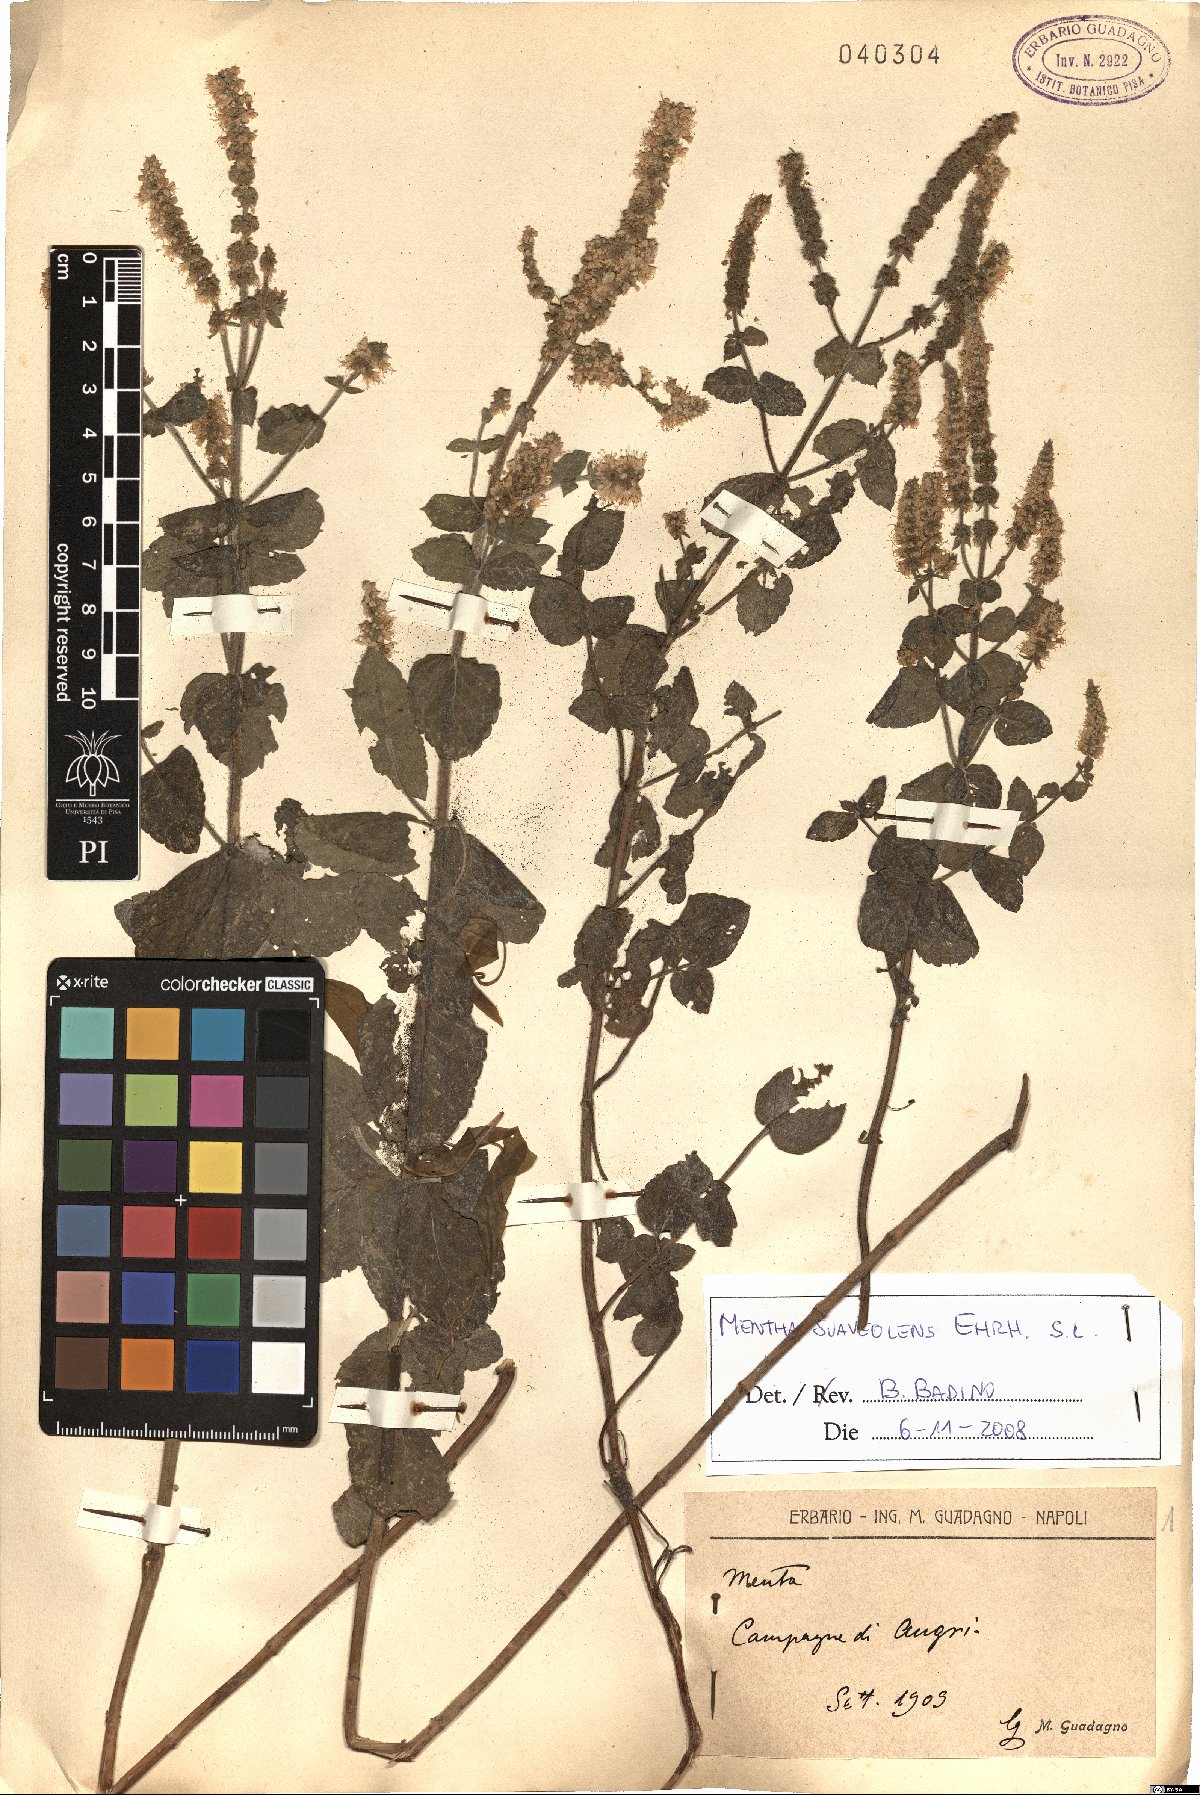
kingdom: Plantae
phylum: Tracheophyta
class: Magnoliopsida
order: Lamiales
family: Lamiaceae
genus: Mentha
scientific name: Mentha suaveolens
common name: Apple mint
